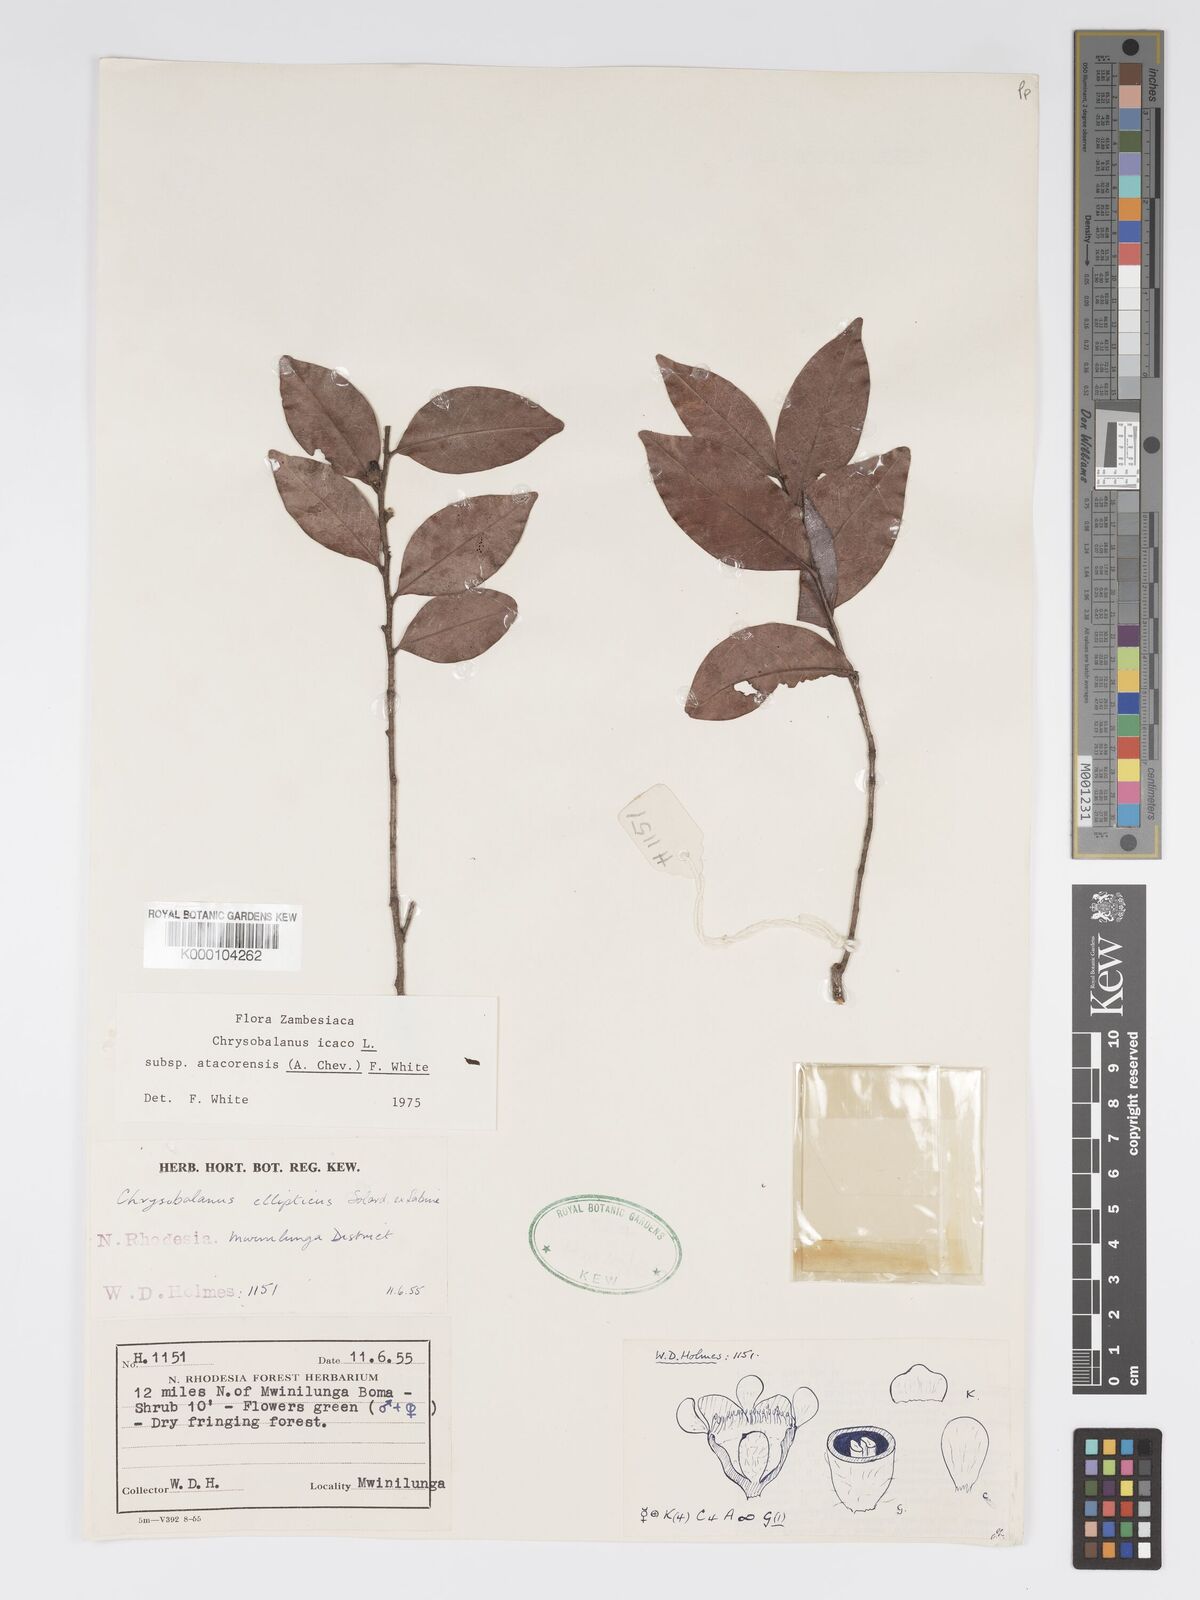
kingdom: Plantae
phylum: Tracheophyta
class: Magnoliopsida
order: Malpighiales
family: Chrysobalanaceae
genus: Chrysobalanus
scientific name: Chrysobalanus icaco
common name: Coco plum
